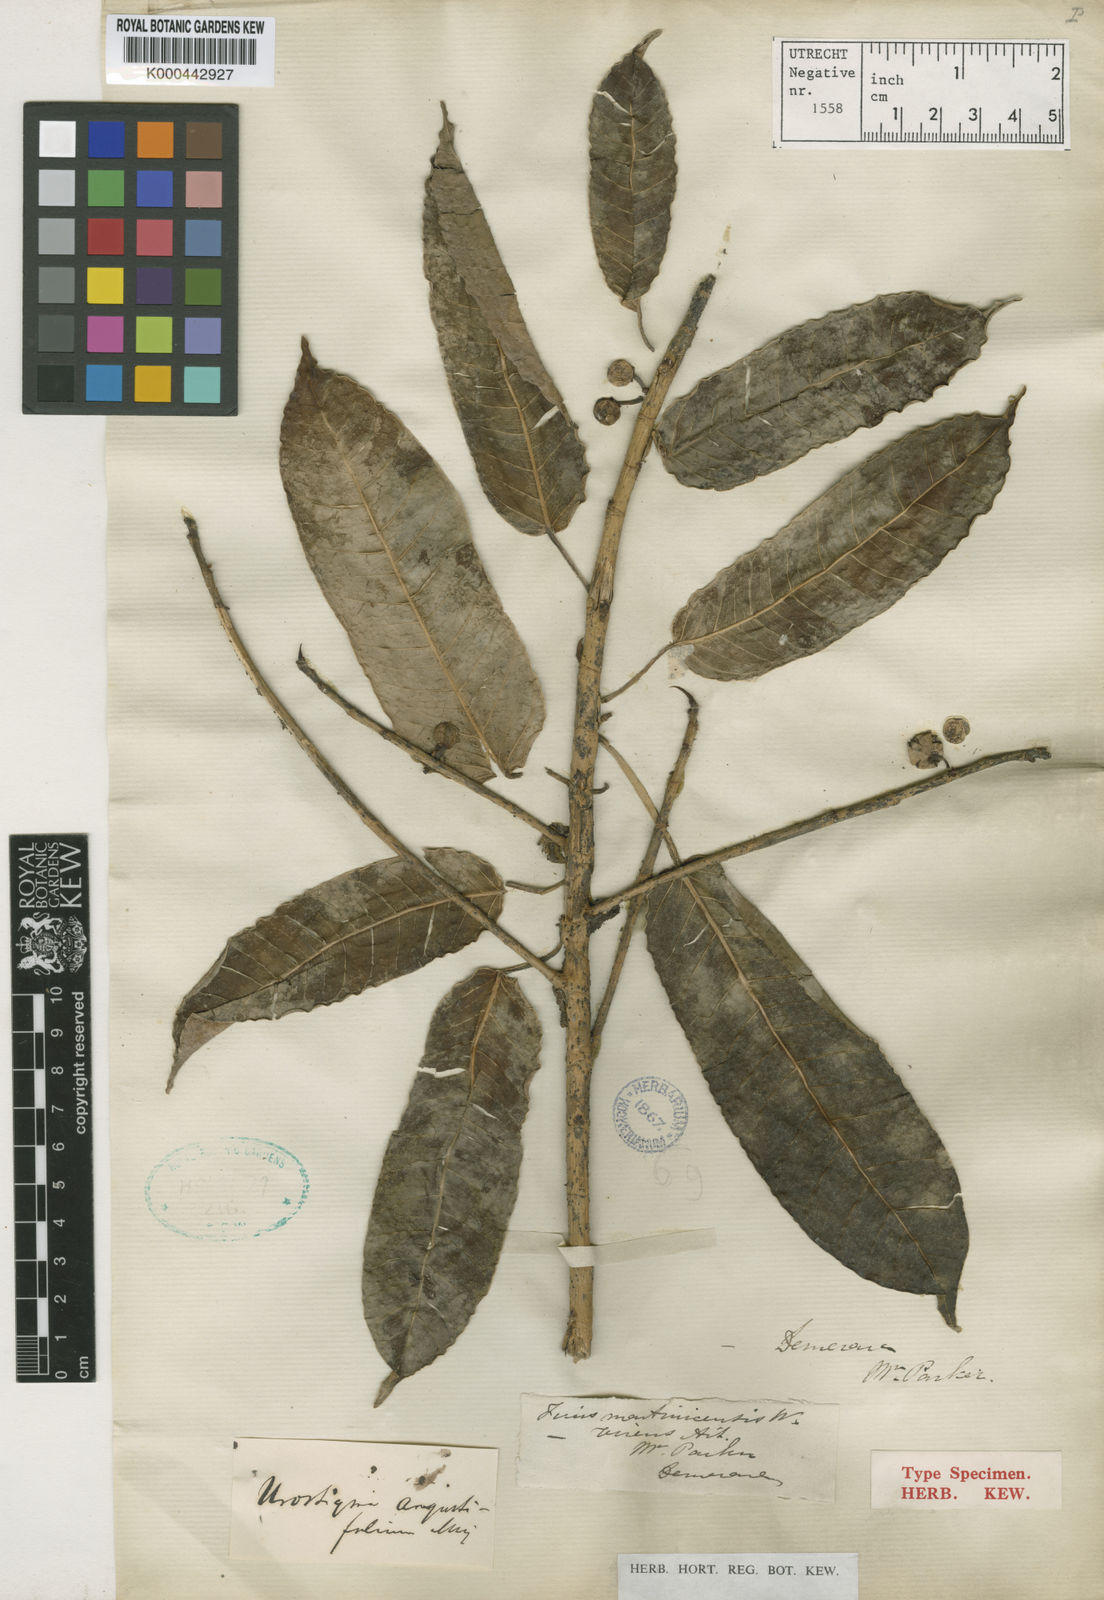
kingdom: Plantae
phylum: Tracheophyta
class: Magnoliopsida
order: Rosales
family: Moraceae
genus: Ficus
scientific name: Ficus amazonica
